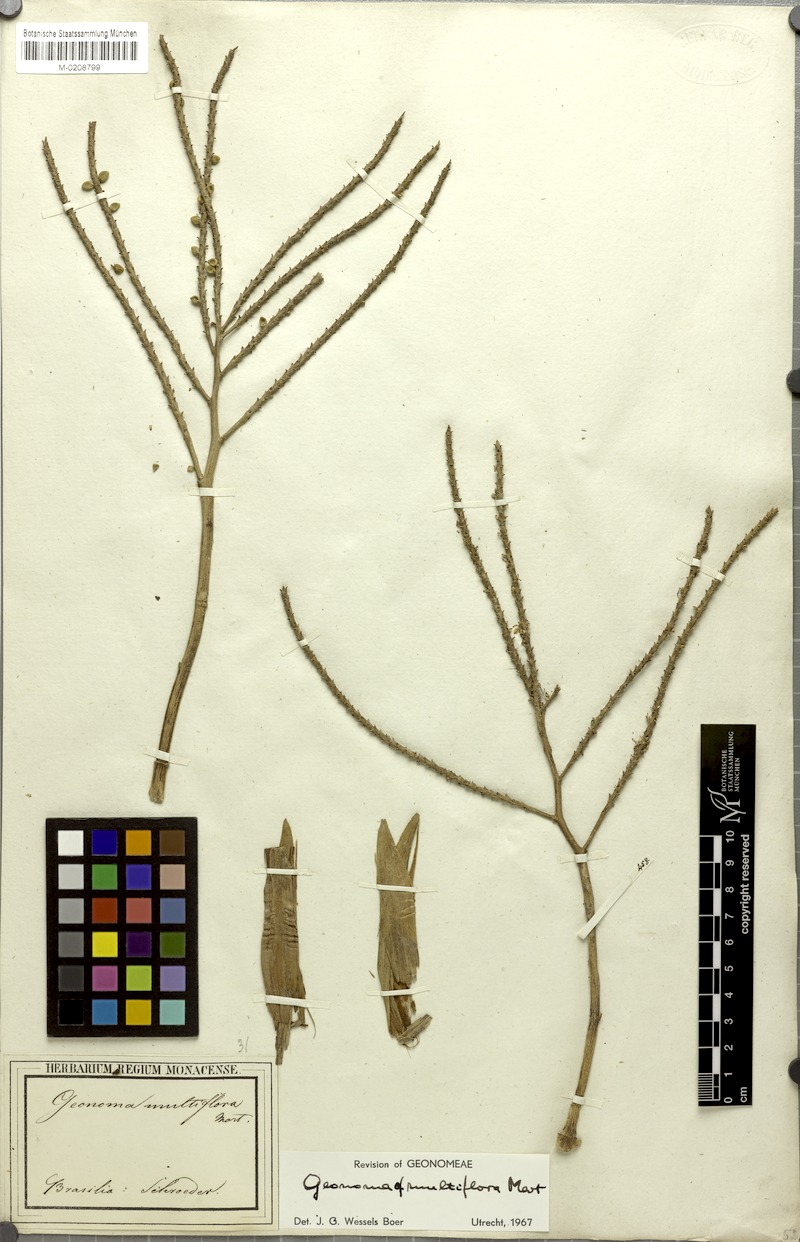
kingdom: Plantae
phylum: Tracheophyta
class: Liliopsida
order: Arecales
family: Arecaceae
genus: Geonoma
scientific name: Geonoma maxima
